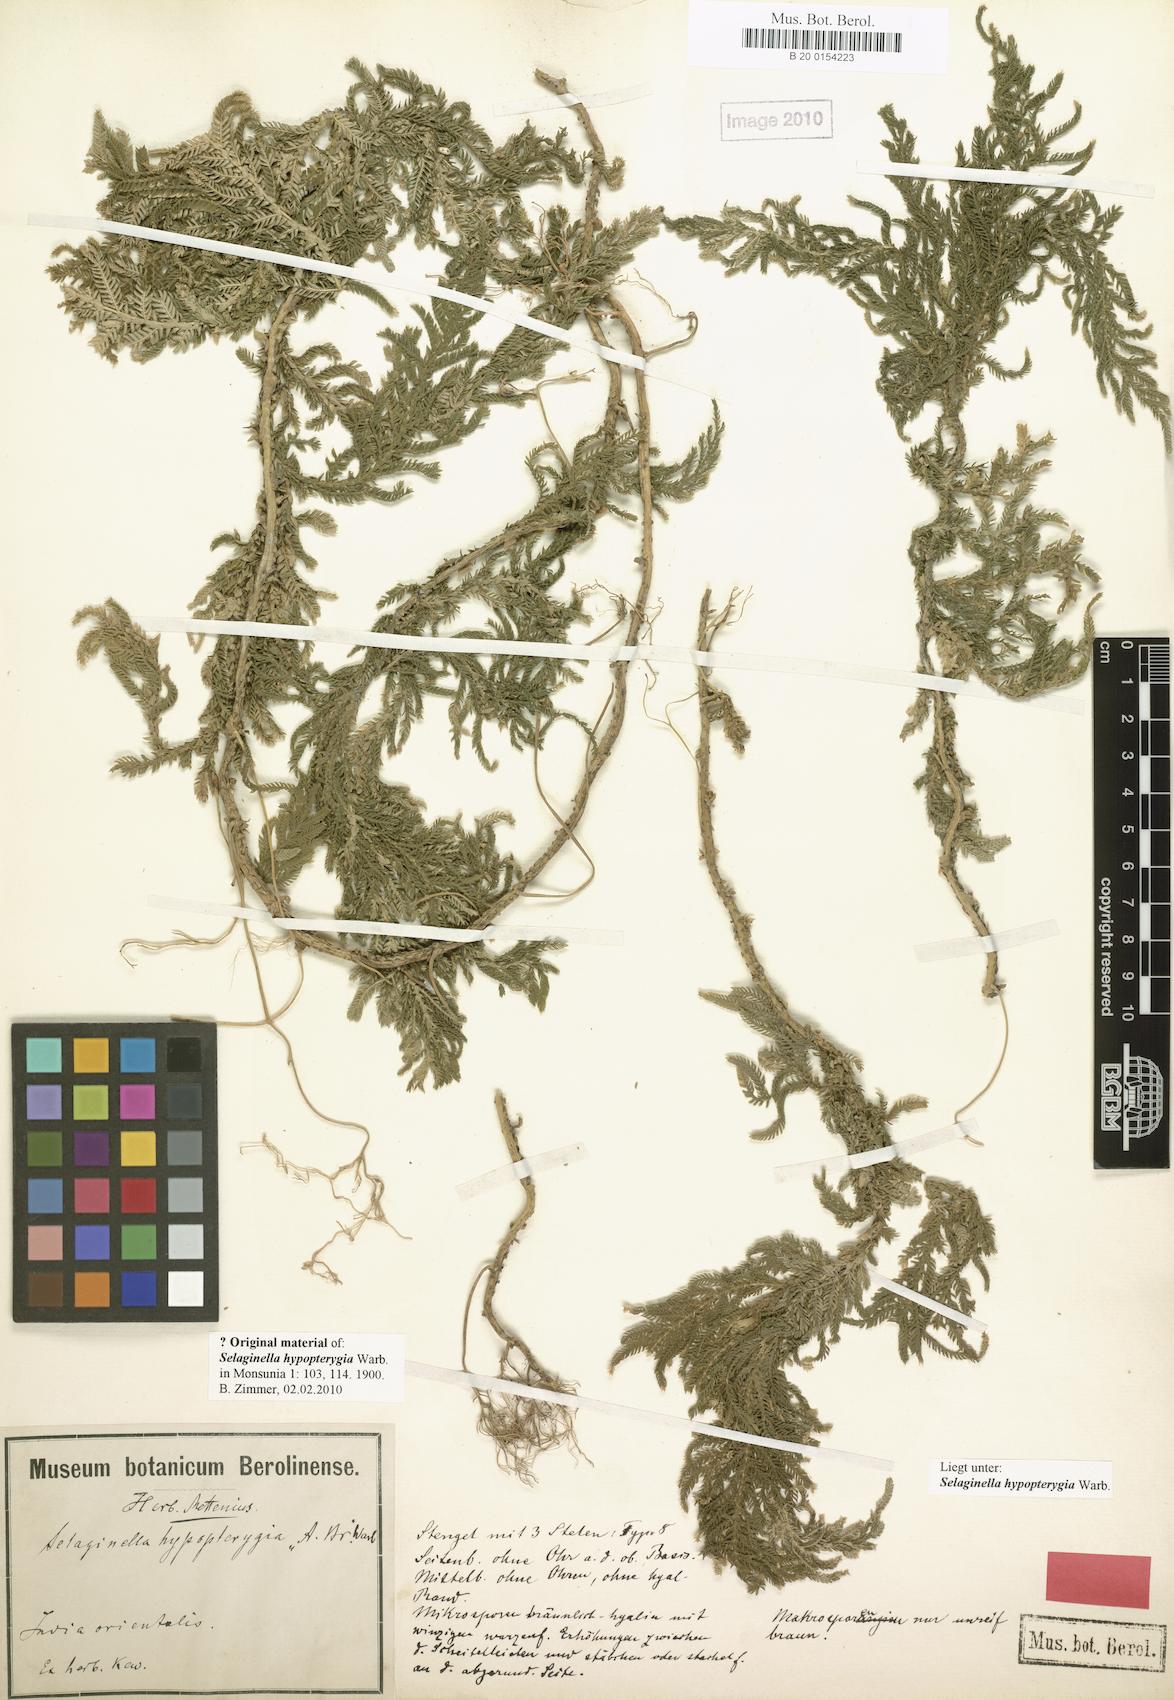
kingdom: Plantae
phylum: Tracheophyta
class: Lycopodiopsida
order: Selaginellales
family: Selaginellaceae
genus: Selaginella
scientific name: Selaginella picta
